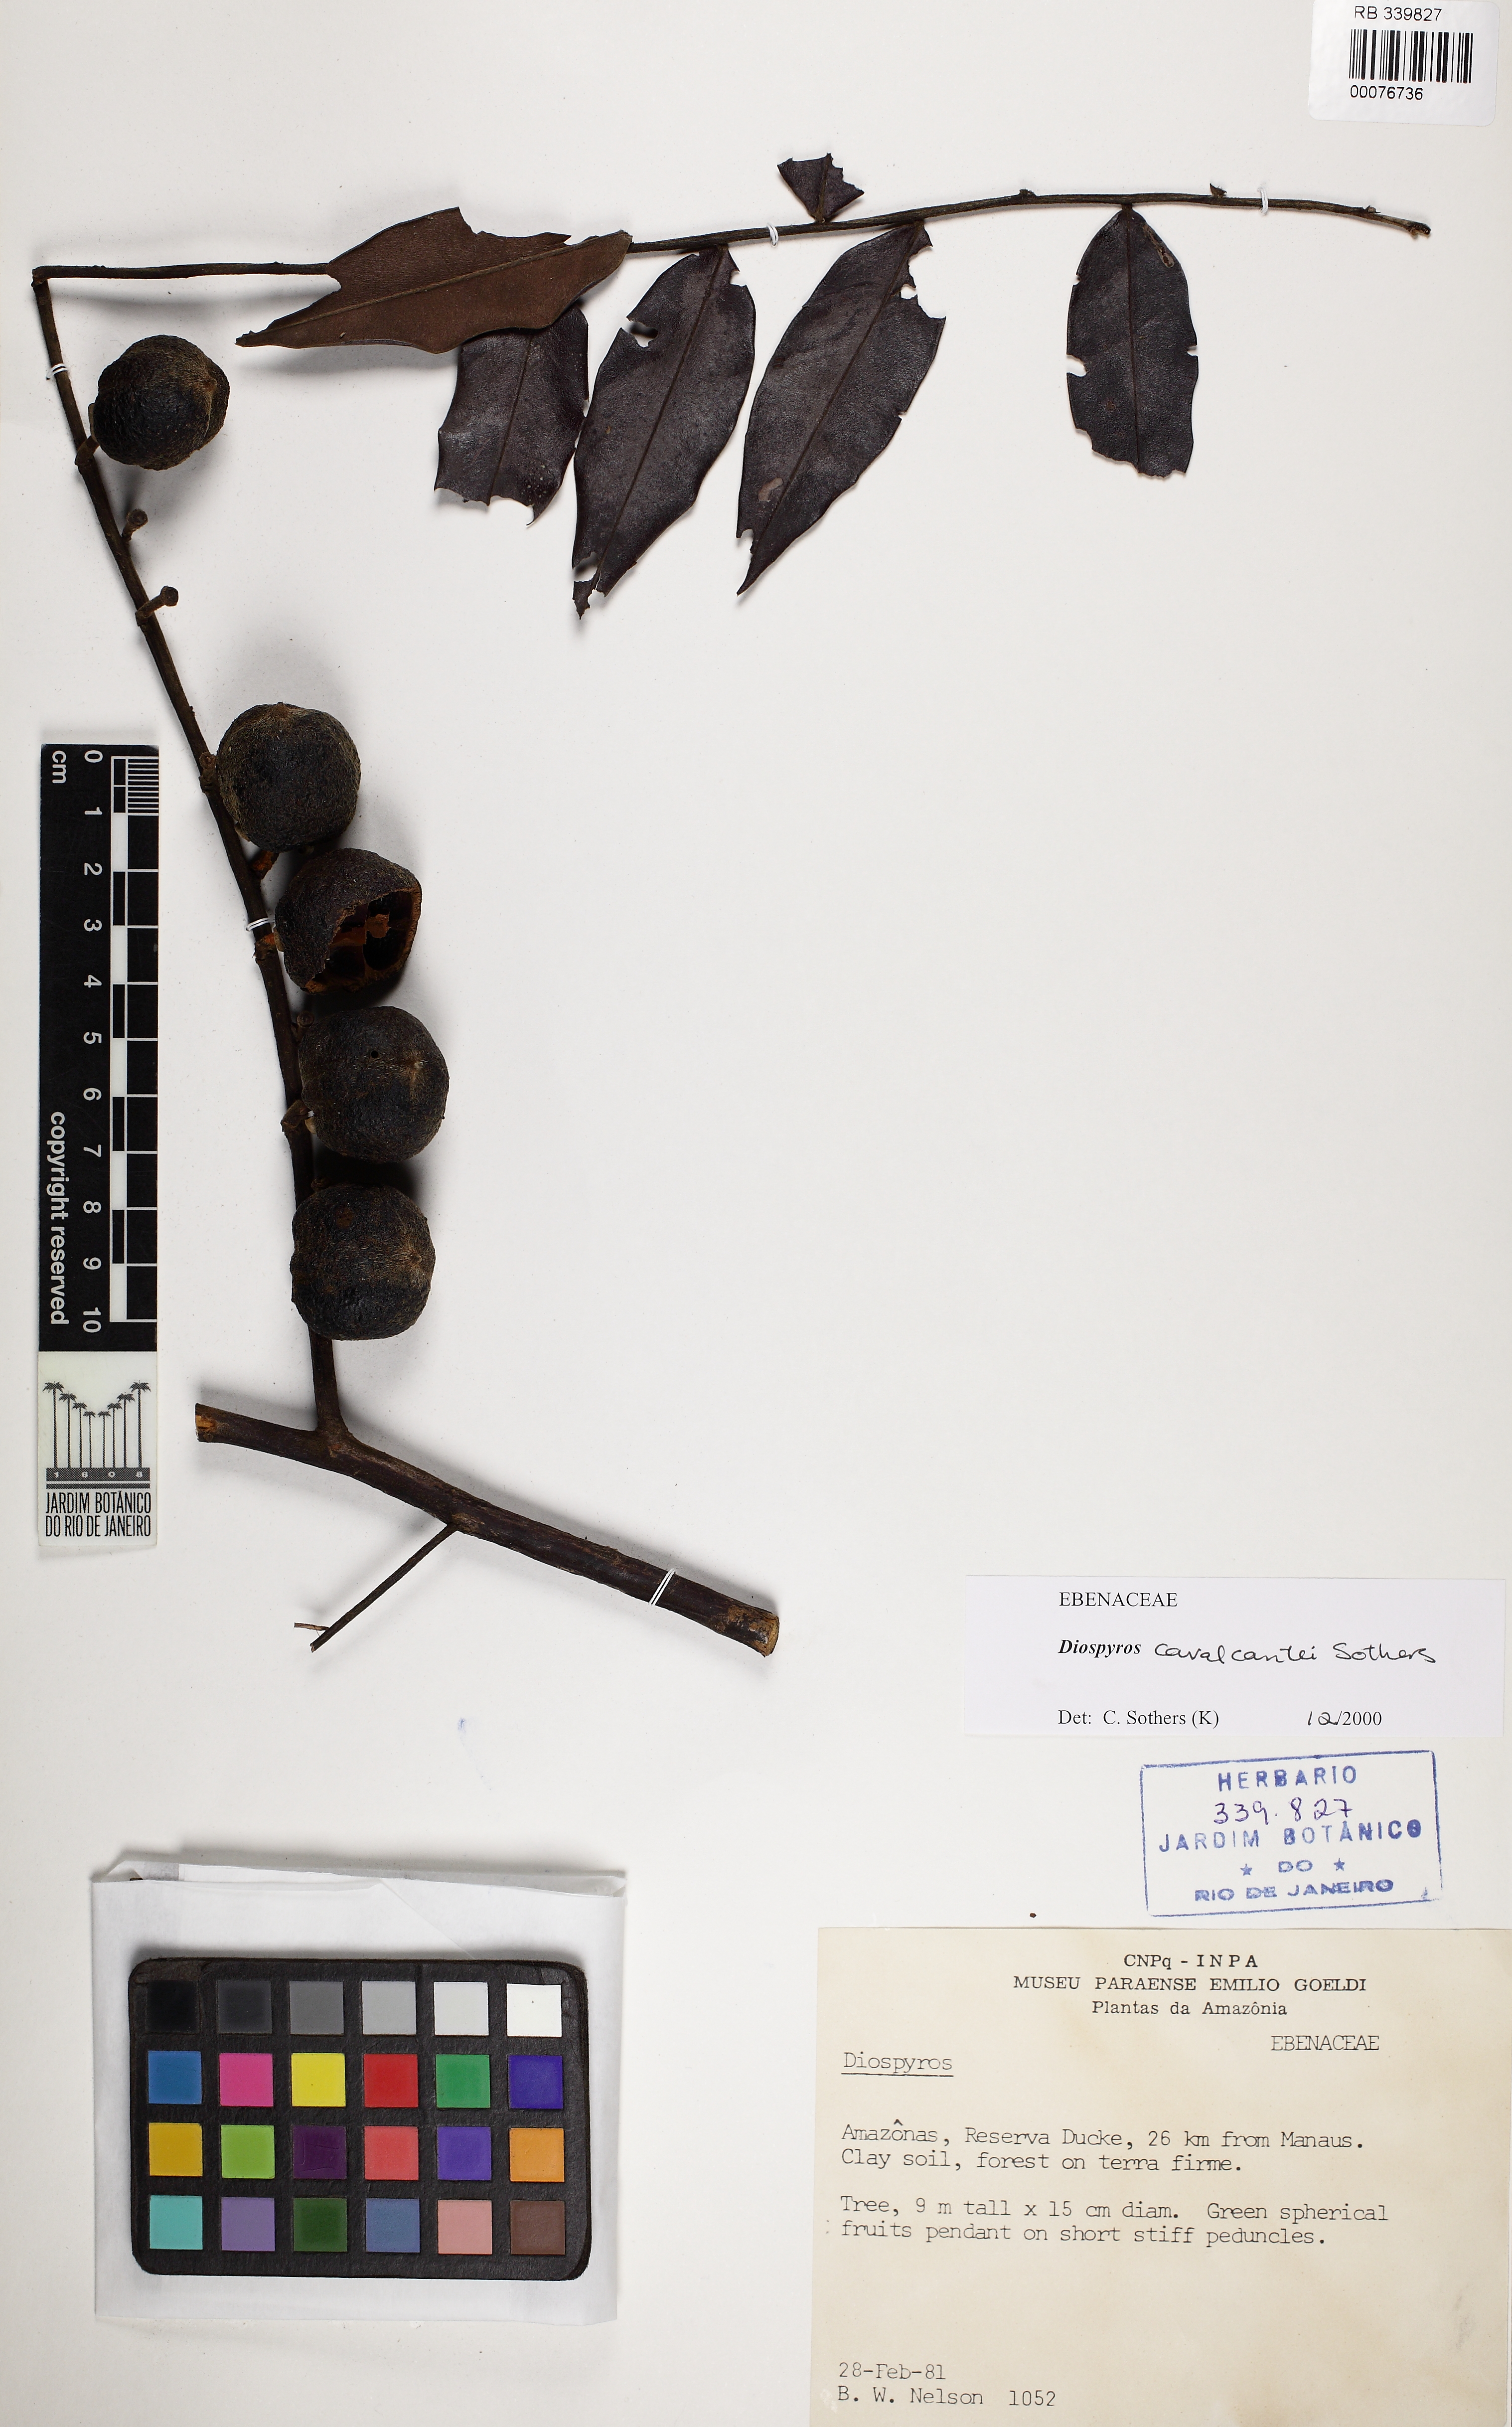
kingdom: Plantae
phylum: Tracheophyta
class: Magnoliopsida
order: Ericales
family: Ebenaceae
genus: Diospyros
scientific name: Diospyros cavalcantei
